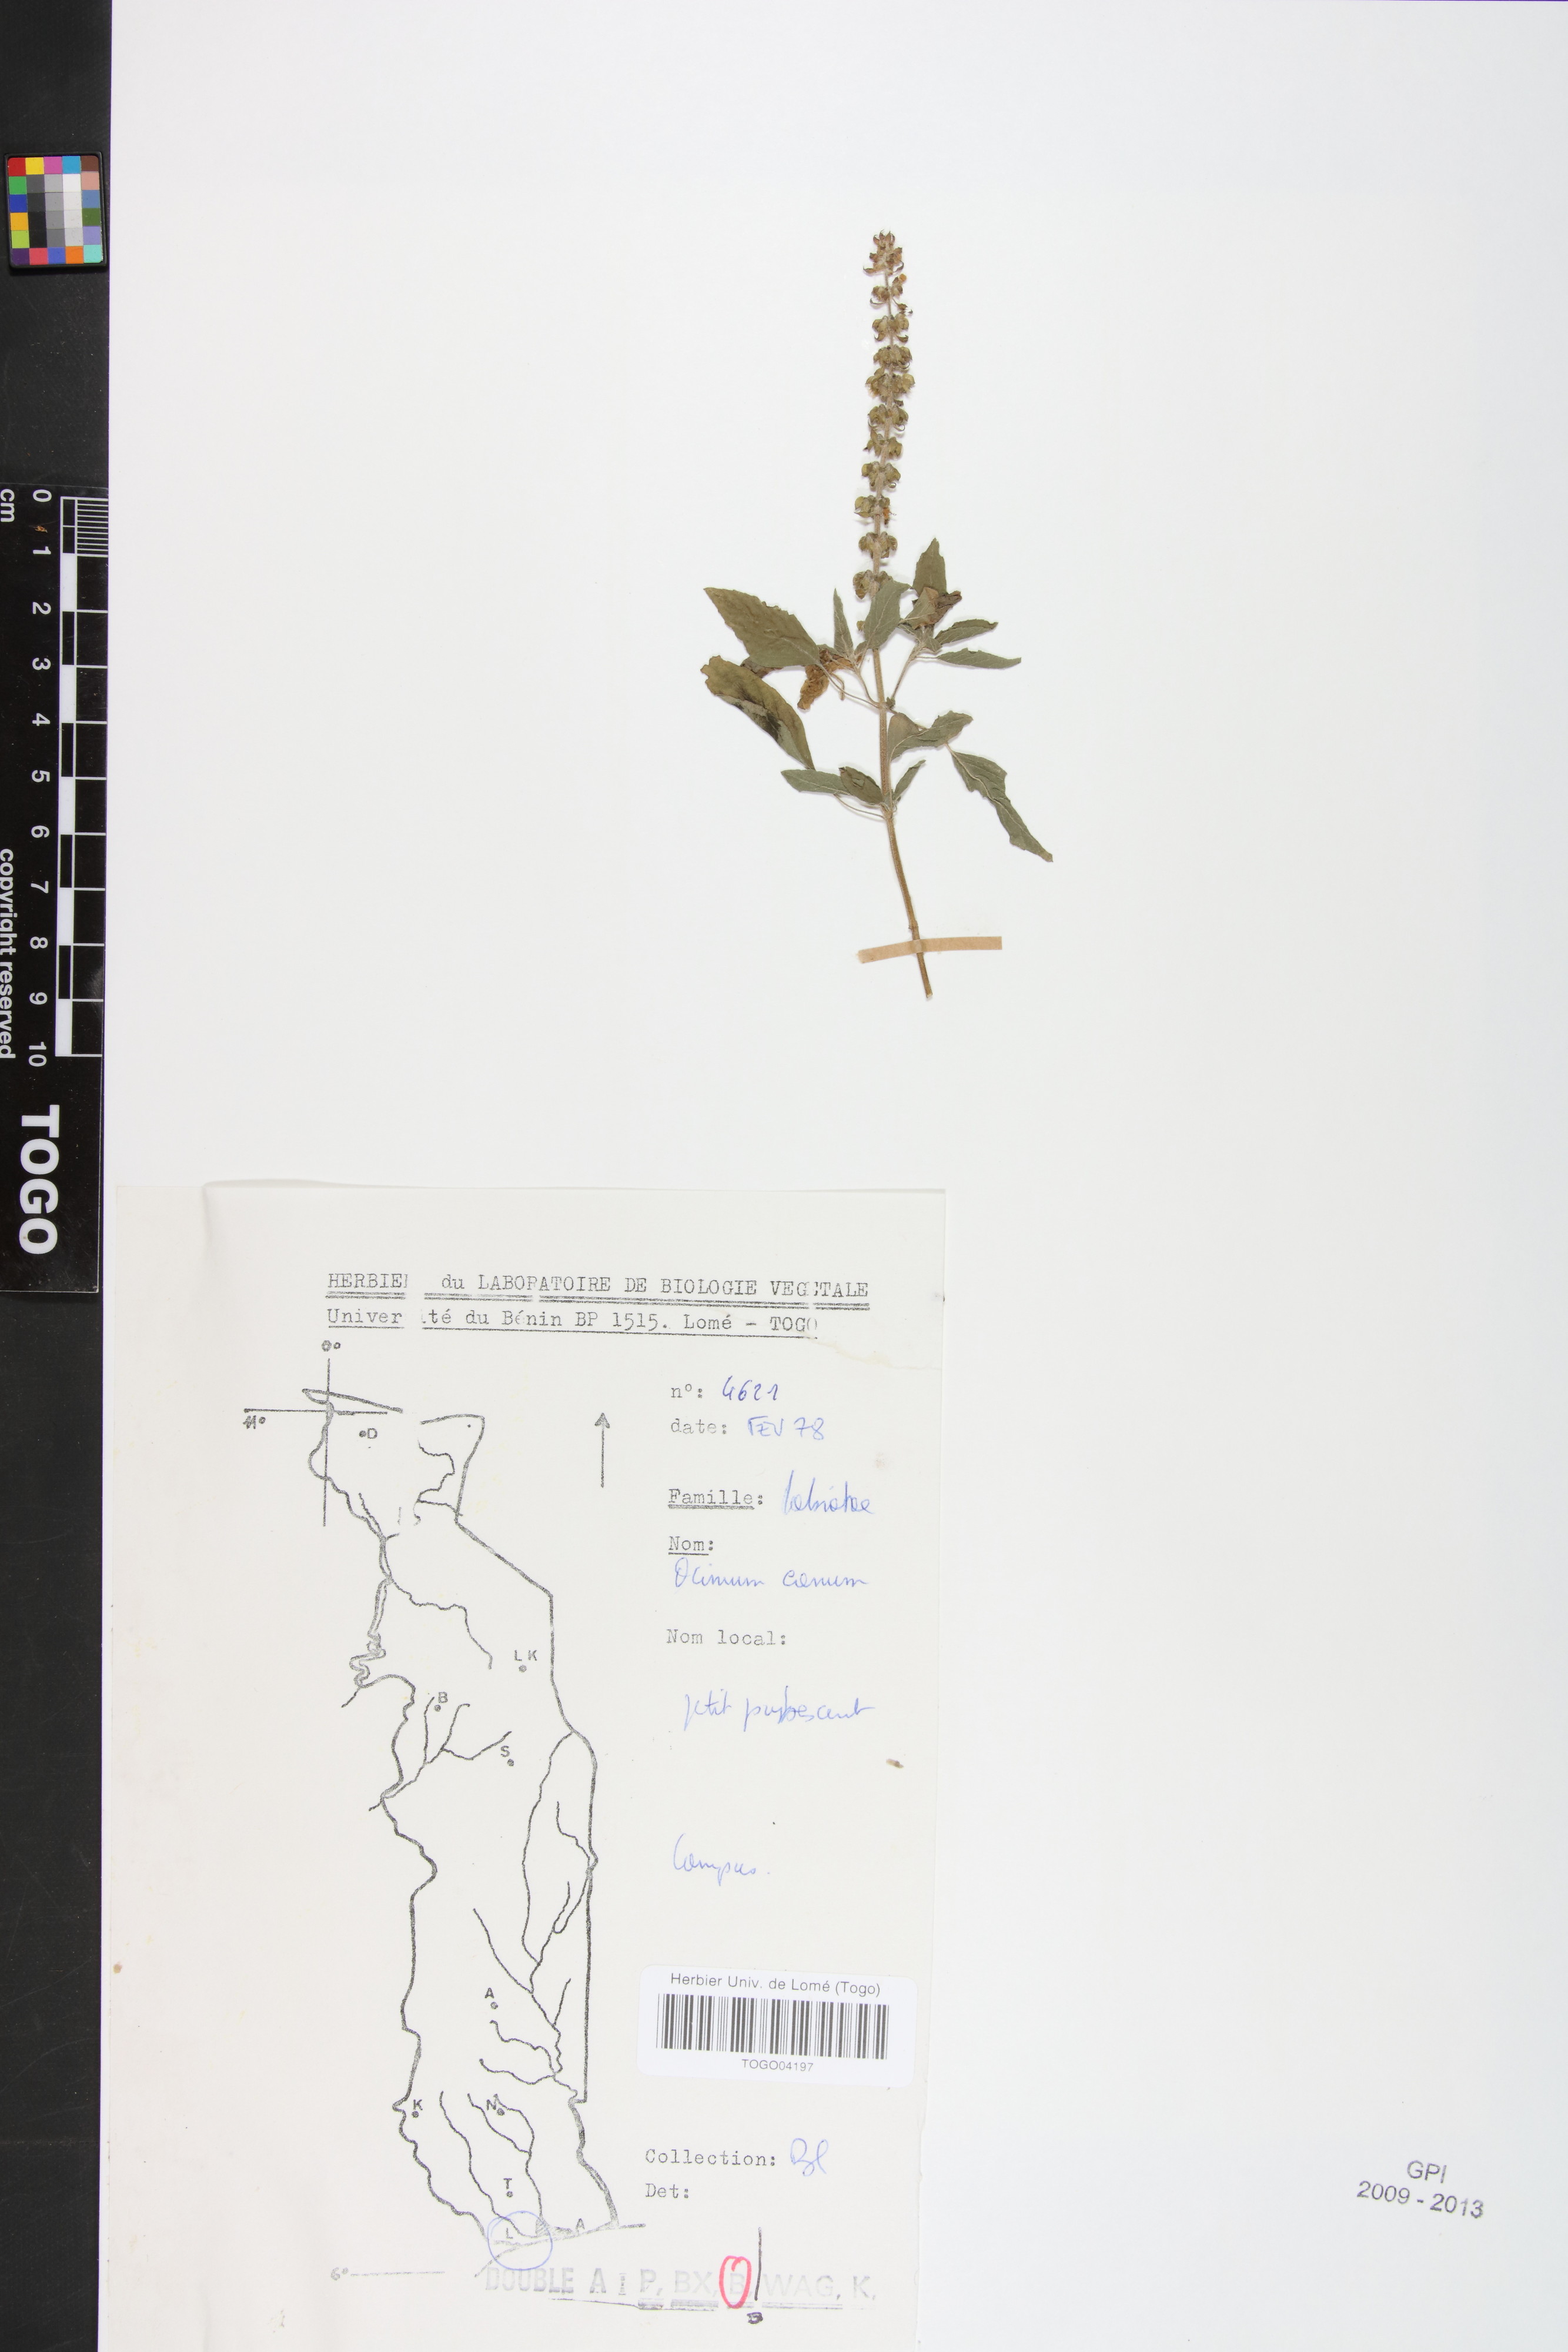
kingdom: Plantae
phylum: Tracheophyta
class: Magnoliopsida
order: Lamiales
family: Lamiaceae
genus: Ocimum
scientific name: Ocimum americanum
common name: American basil
